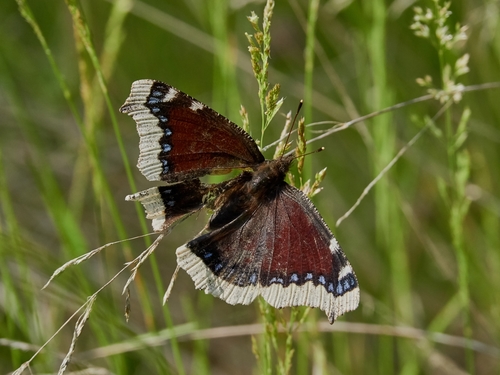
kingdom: Animalia
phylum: Arthropoda
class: Insecta
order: Lepidoptera
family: Nymphalidae
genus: Nymphalis
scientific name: Nymphalis antiopa
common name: Camberwell beauty
